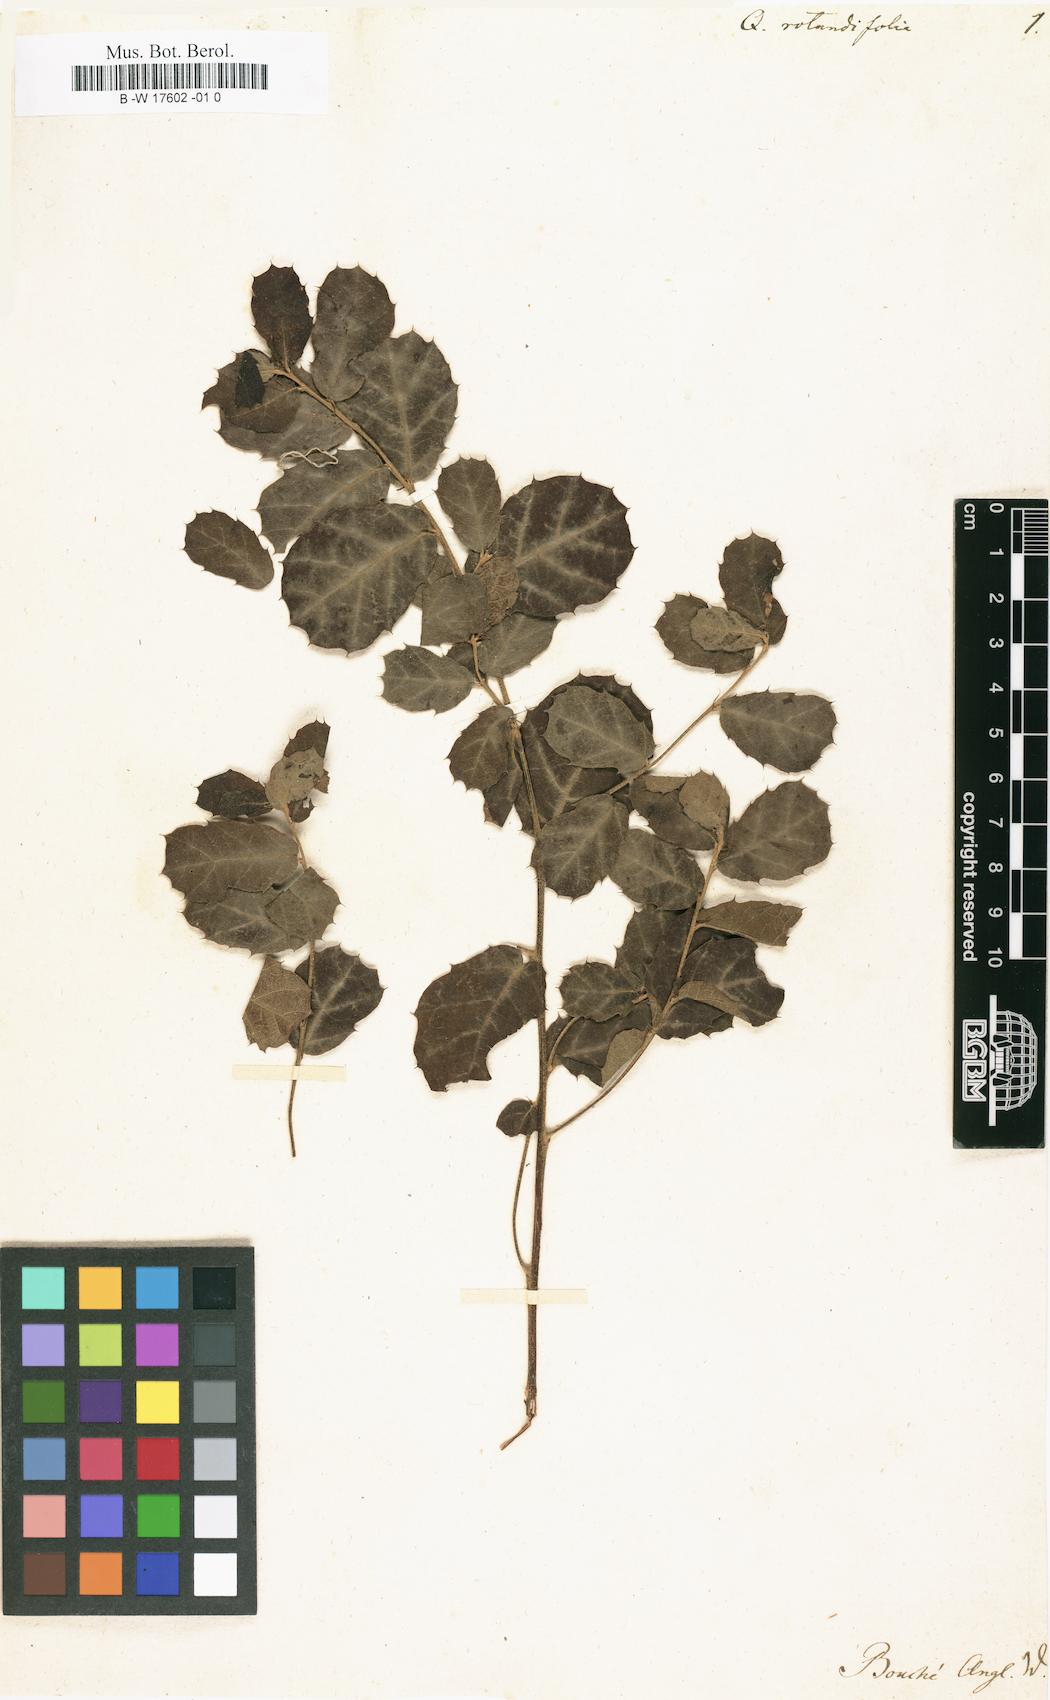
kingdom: Plantae
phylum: Tracheophyta
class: Magnoliopsida
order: Fagales
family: Fagaceae
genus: Quercus
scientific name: Quercus rotundifolia
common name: Holm oak
